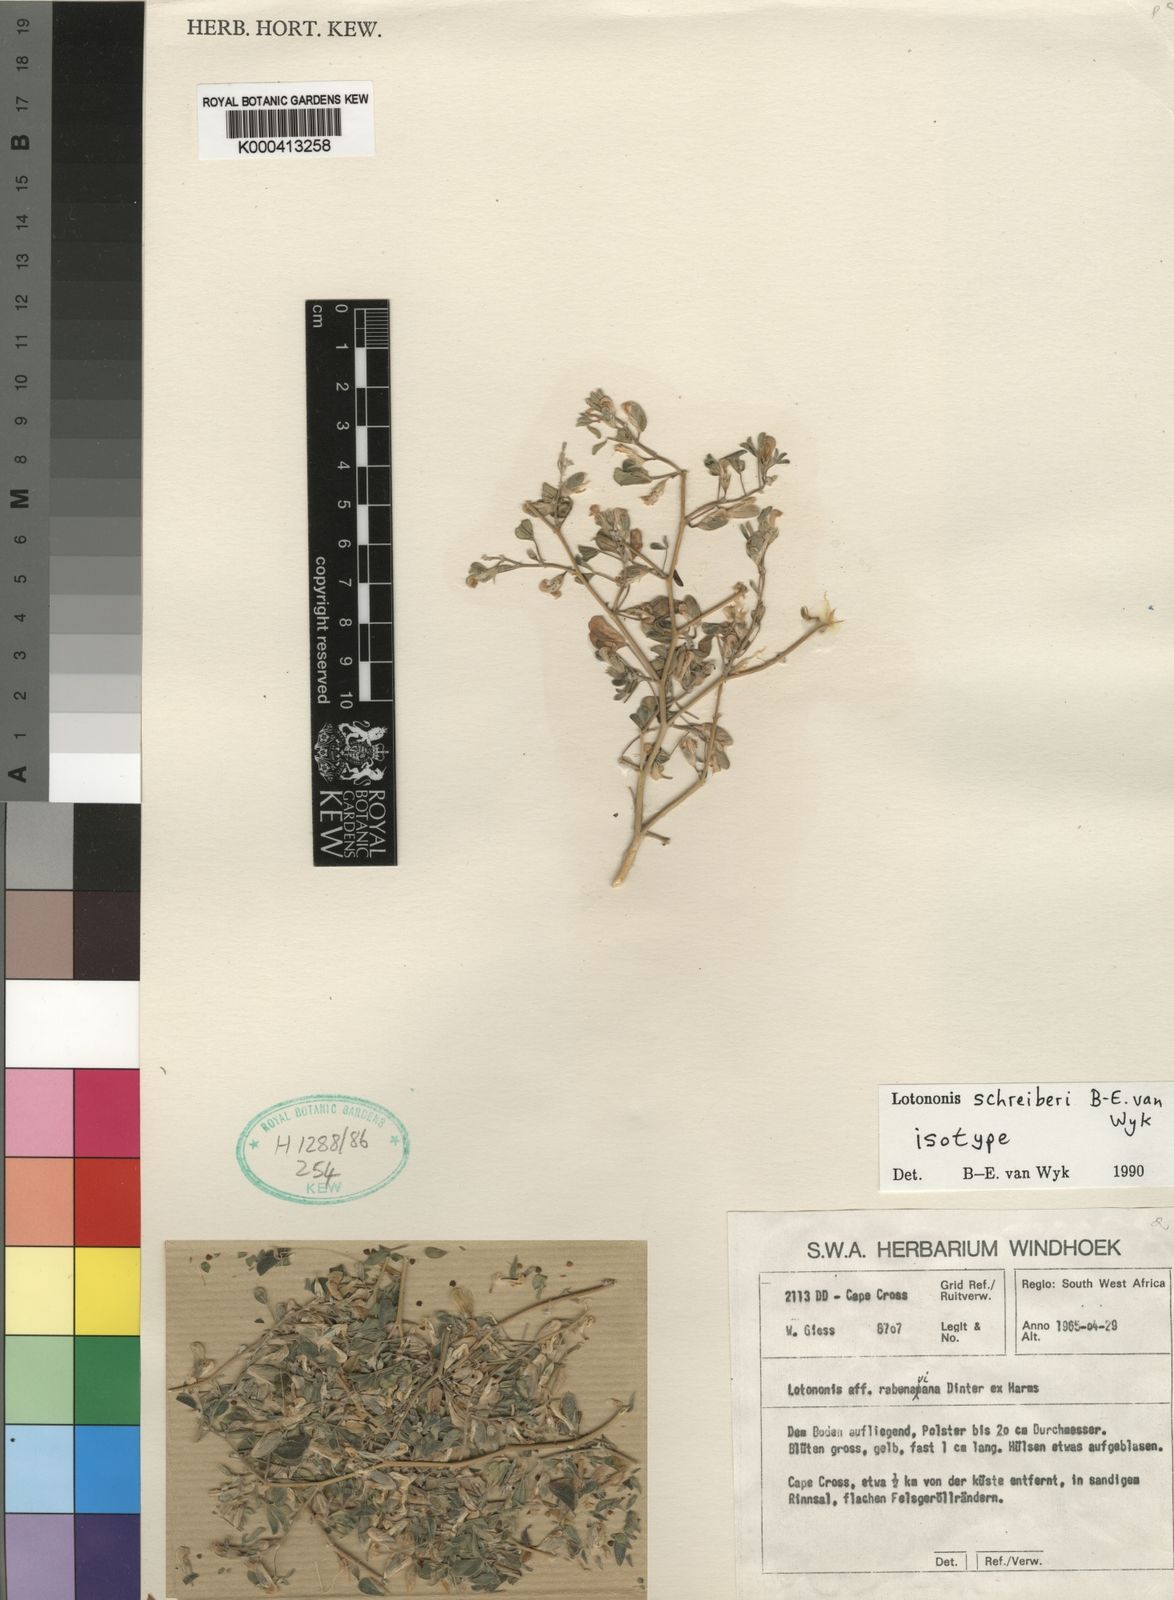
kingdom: Plantae
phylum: Tracheophyta
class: Magnoliopsida
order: Fabales
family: Fabaceae
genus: Lotononis
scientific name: Lotononis schreiberae
